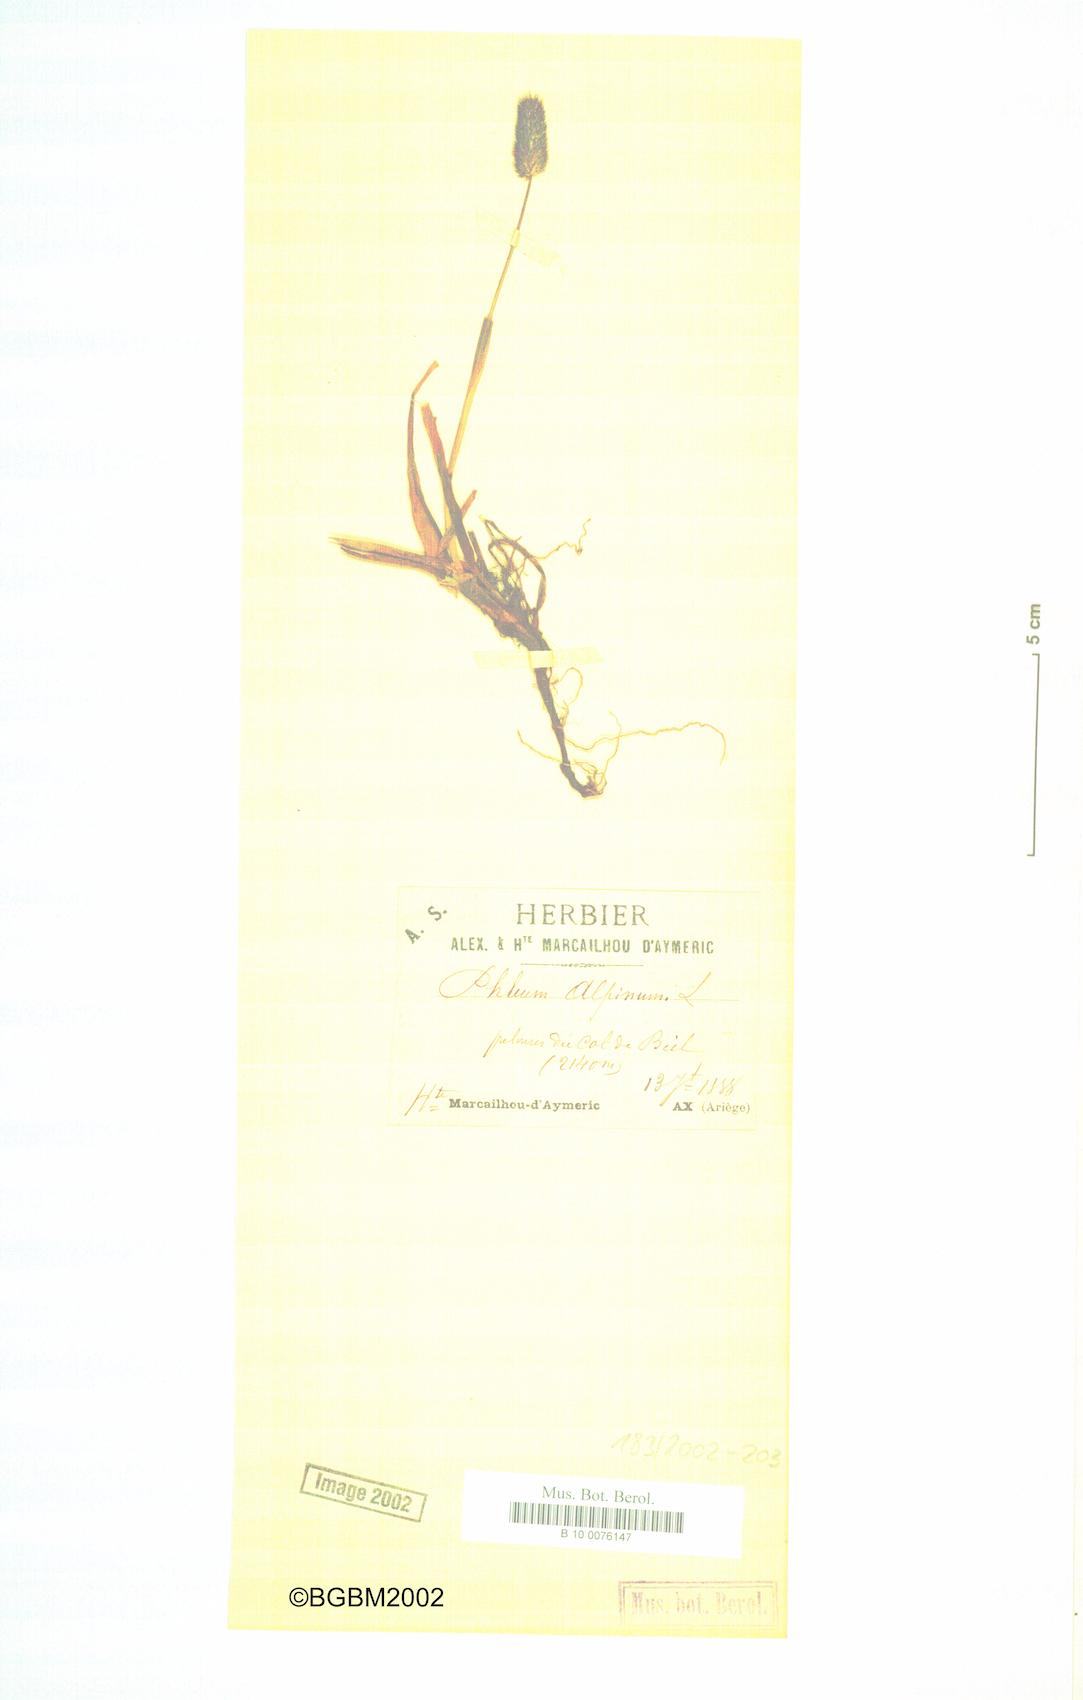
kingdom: Plantae
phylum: Tracheophyta
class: Liliopsida
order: Poales
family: Poaceae
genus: Phleum
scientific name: Phleum alpinum
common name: Alpine cat's-tail
